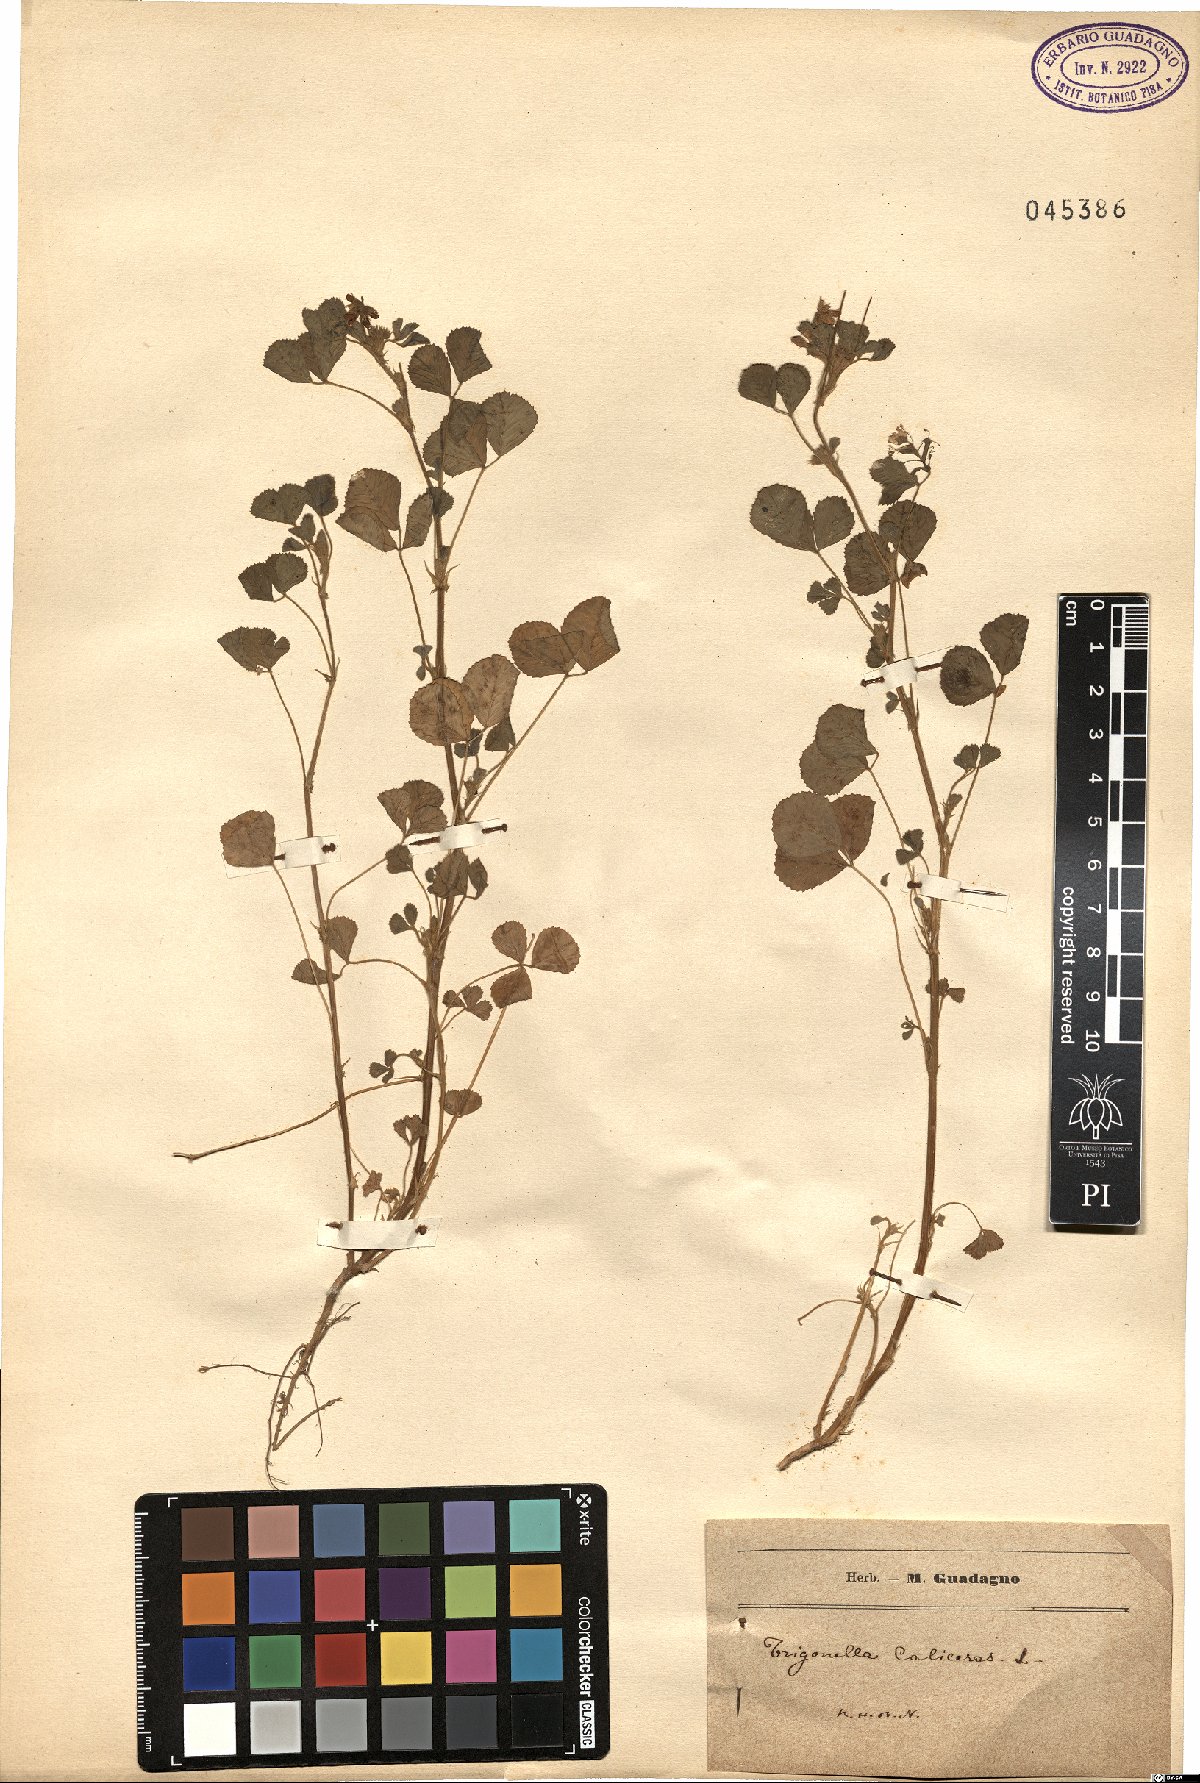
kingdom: Plantae
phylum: Tracheophyta
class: Magnoliopsida
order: Fabales
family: Fabaceae
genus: Trigonella
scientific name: Trigonella calliceras
